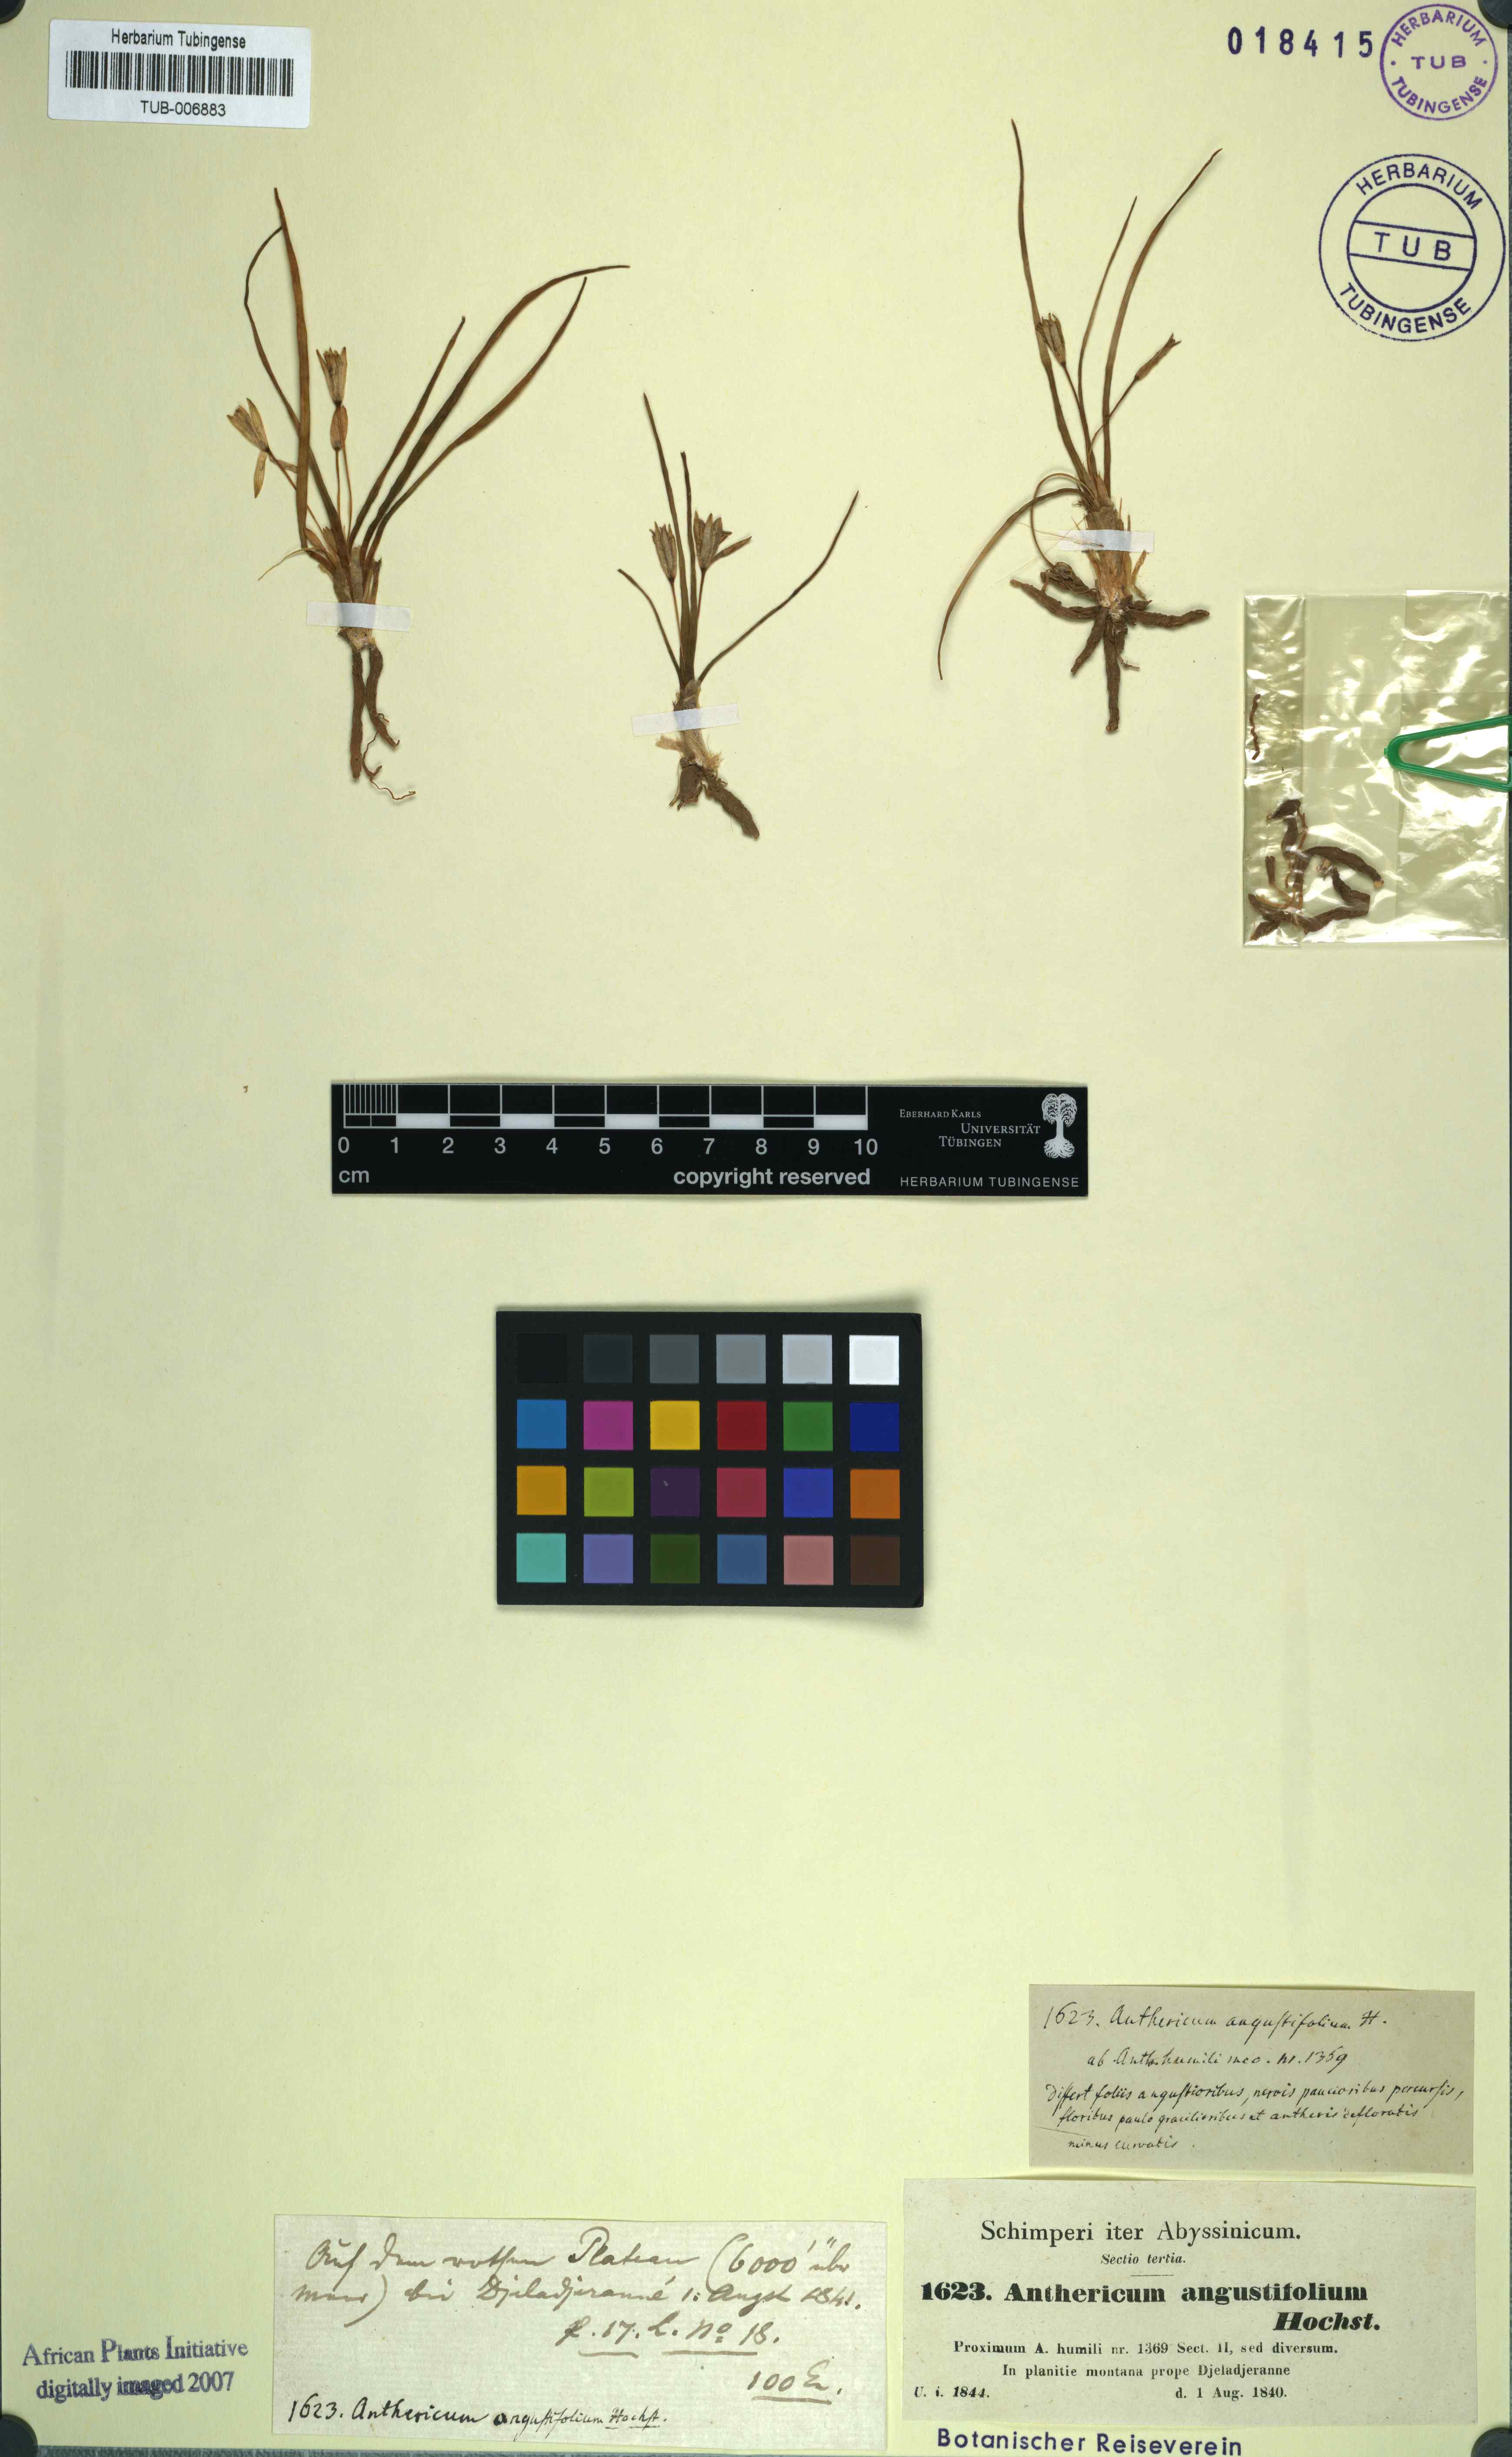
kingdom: Plantae
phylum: Tracheophyta
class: Liliopsida
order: Asparagales
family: Asparagaceae
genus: Anthericum
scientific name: Anthericum angustifolium
